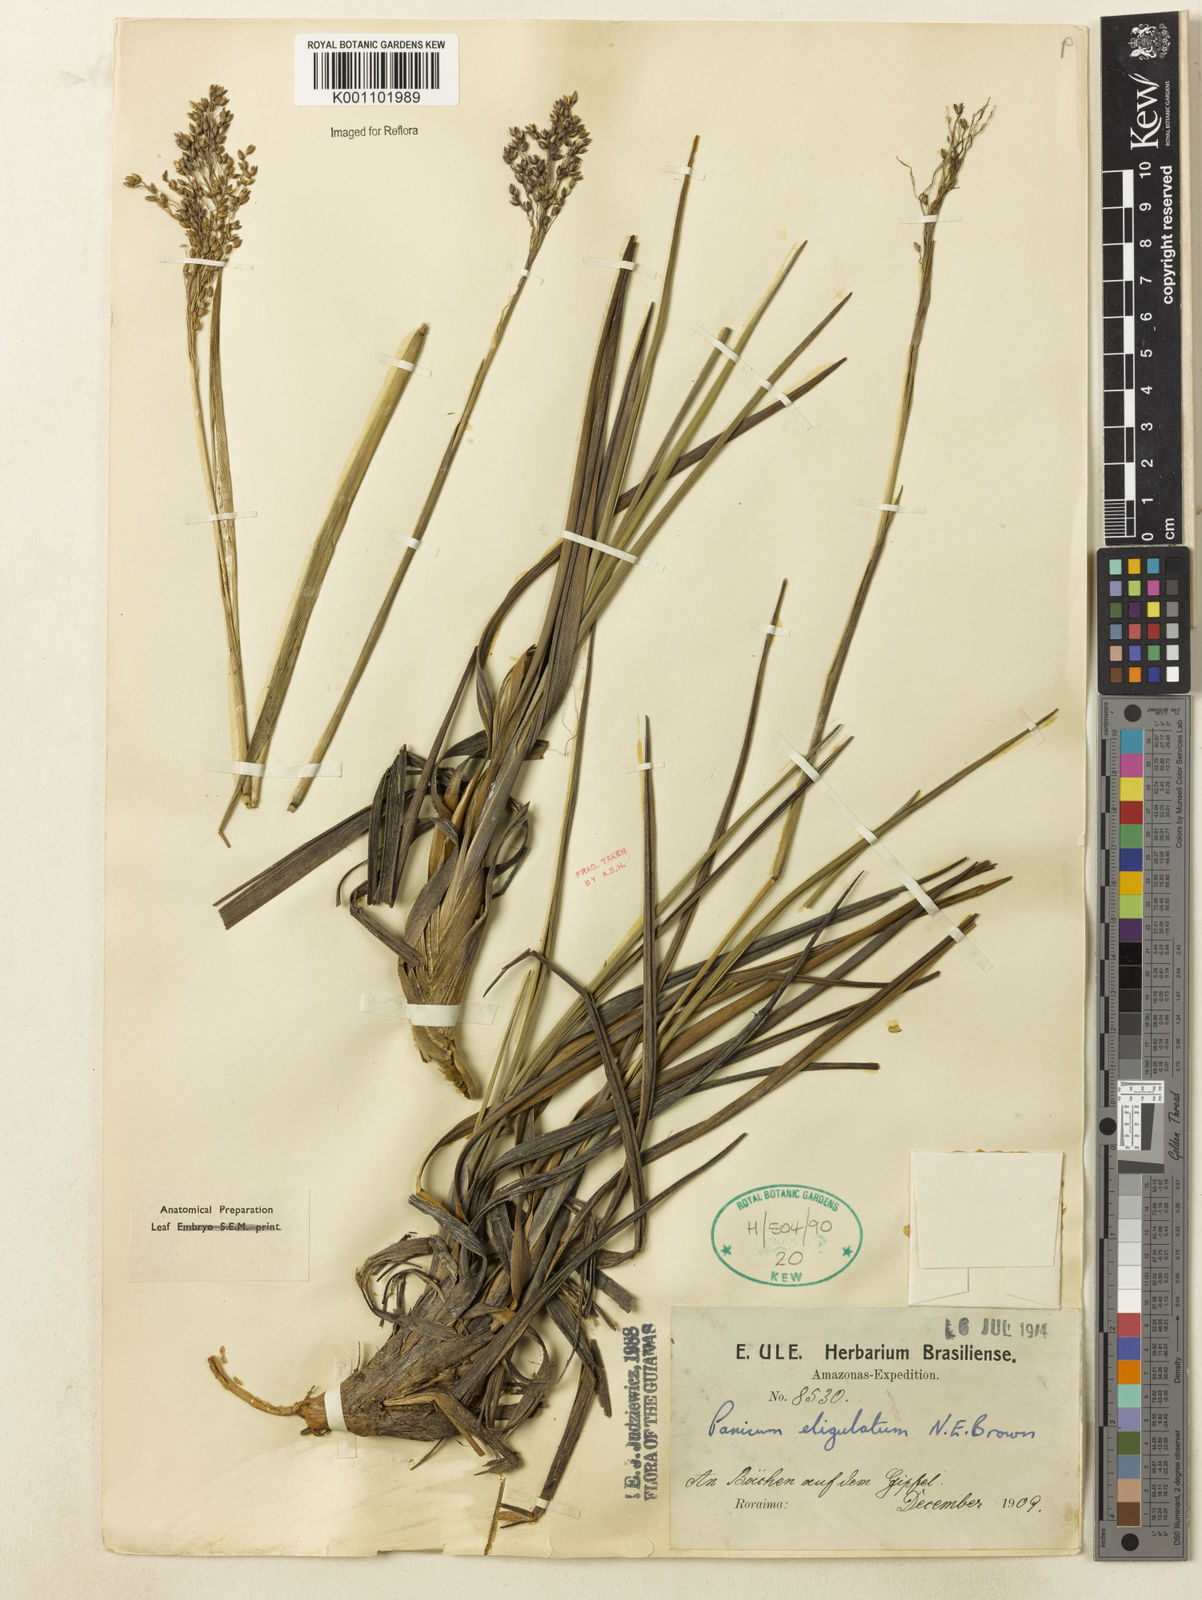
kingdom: Plantae
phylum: Tracheophyta
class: Liliopsida
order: Poales
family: Poaceae
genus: Apochloa
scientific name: Apochloa eligulata
